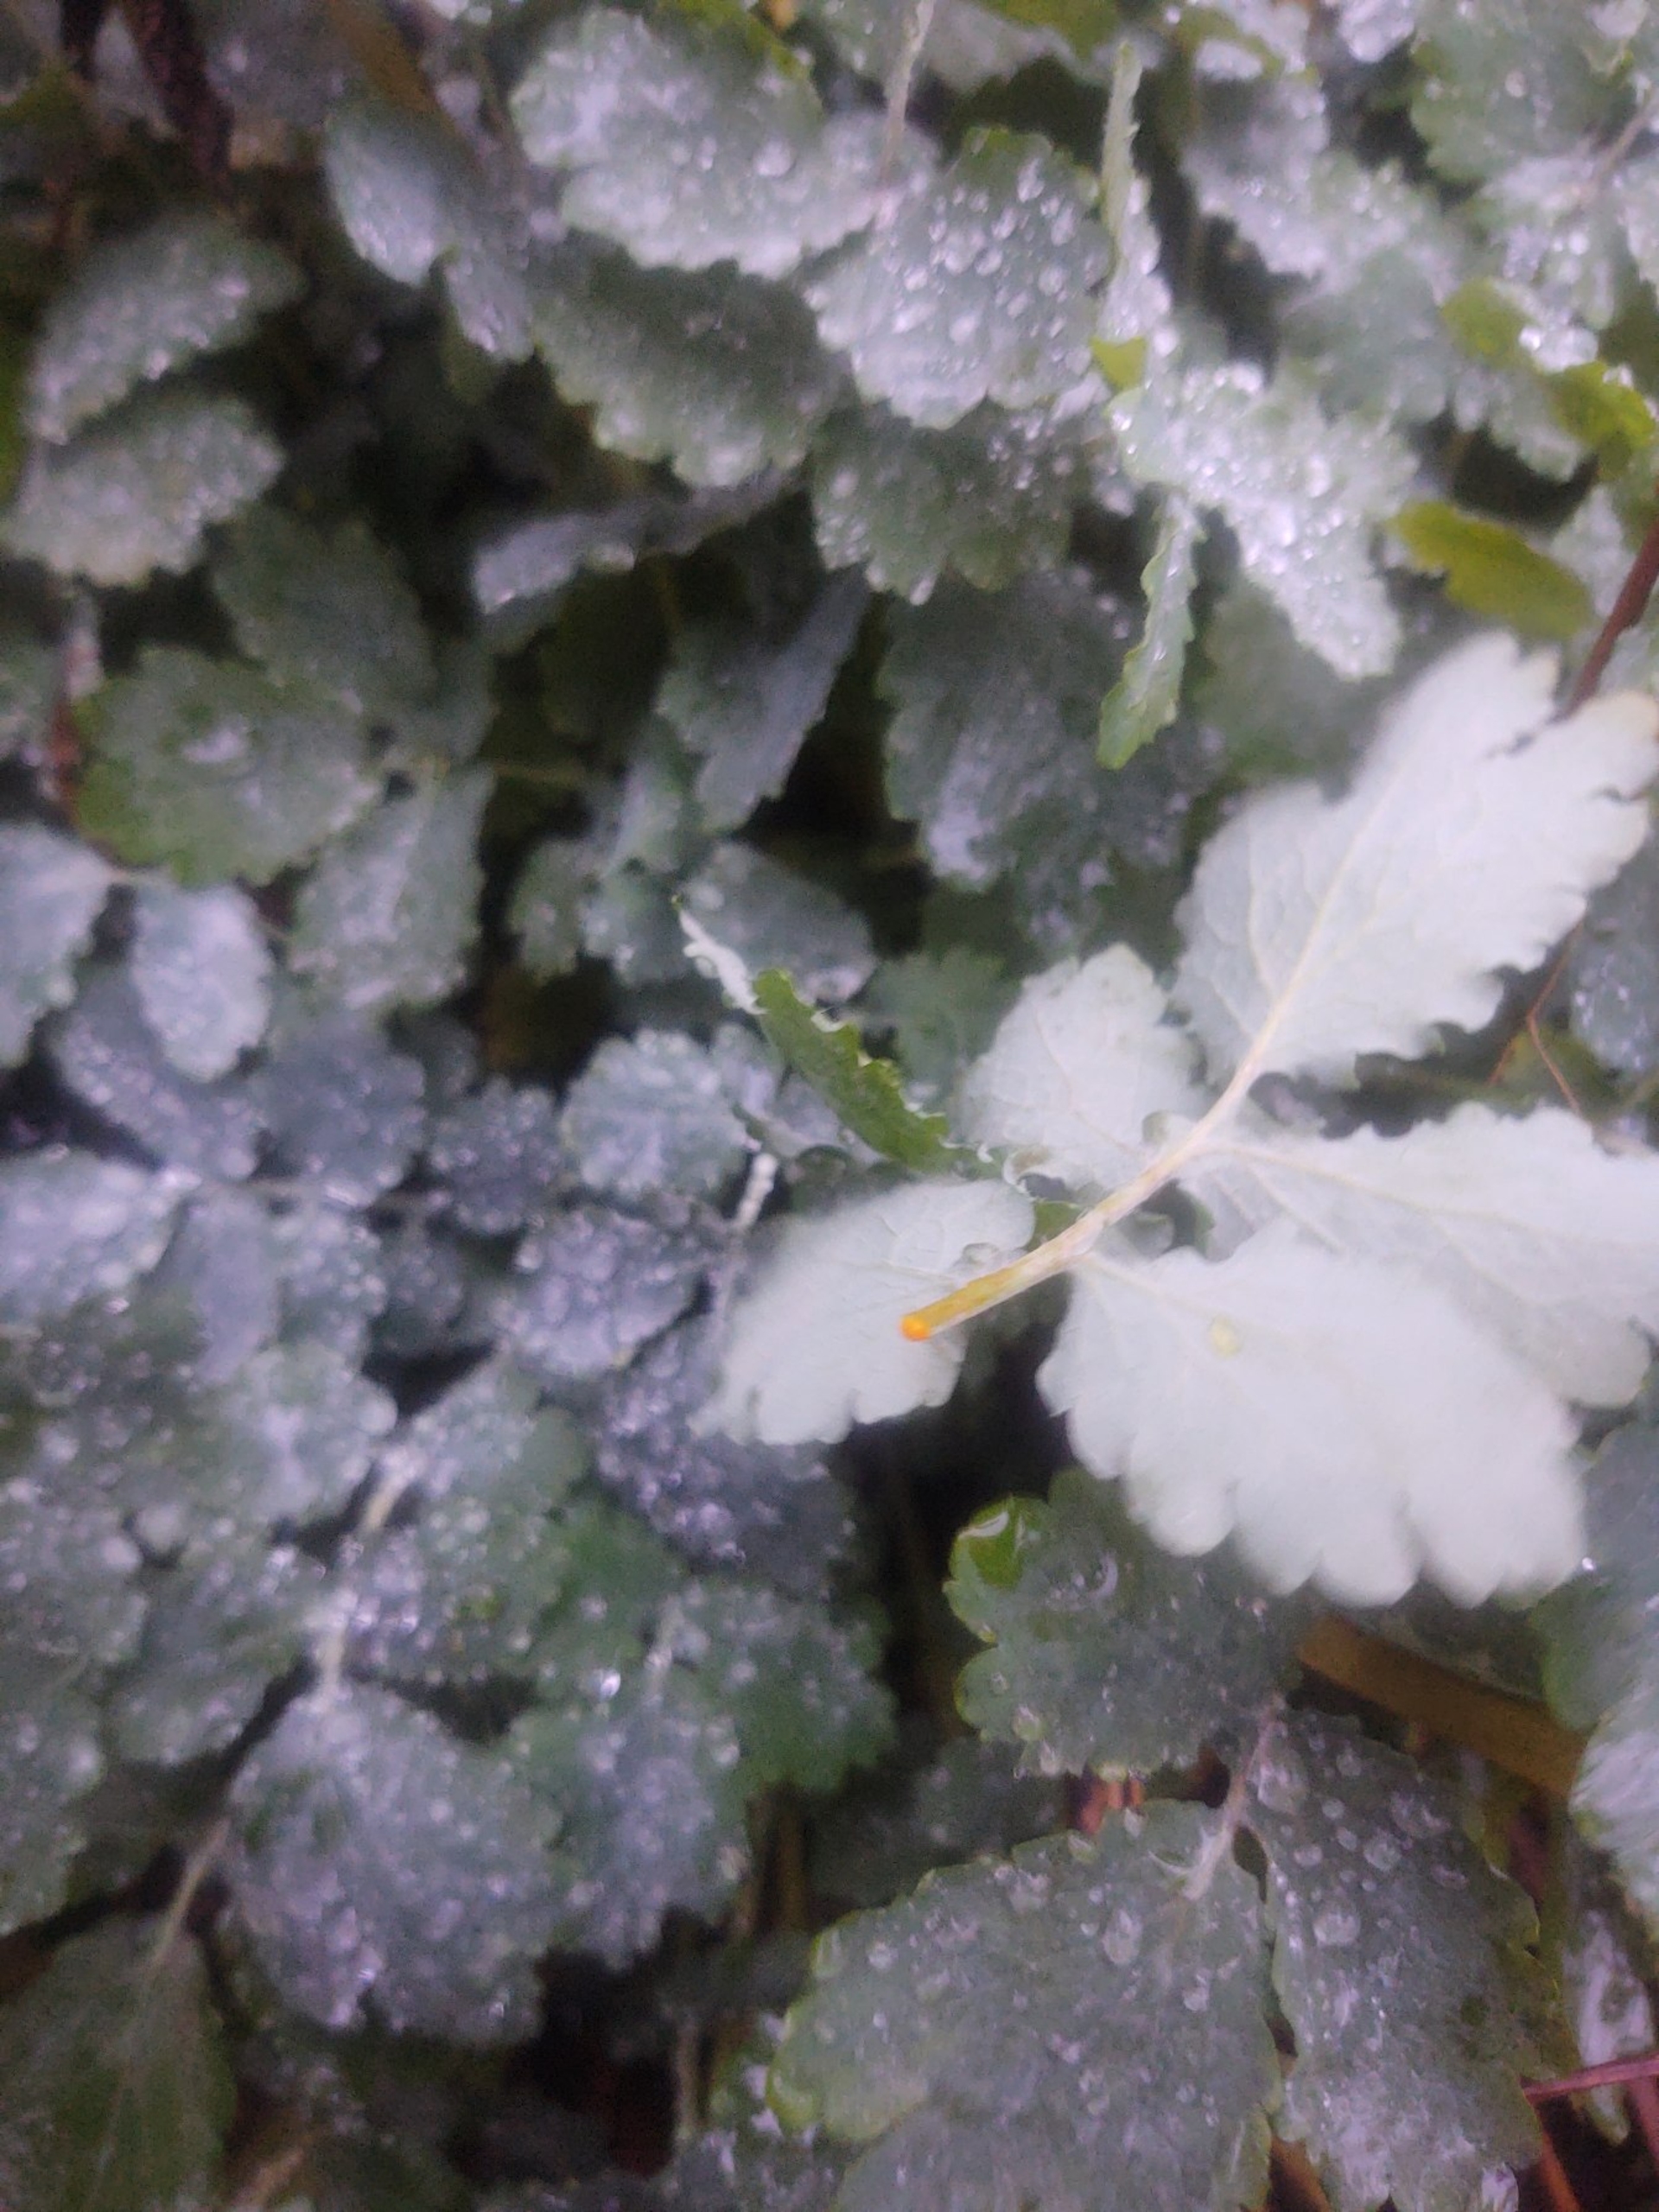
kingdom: Plantae
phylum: Tracheophyta
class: Magnoliopsida
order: Ranunculales
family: Papaveraceae
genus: Chelidonium
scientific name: Chelidonium majus
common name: Svaleurt
